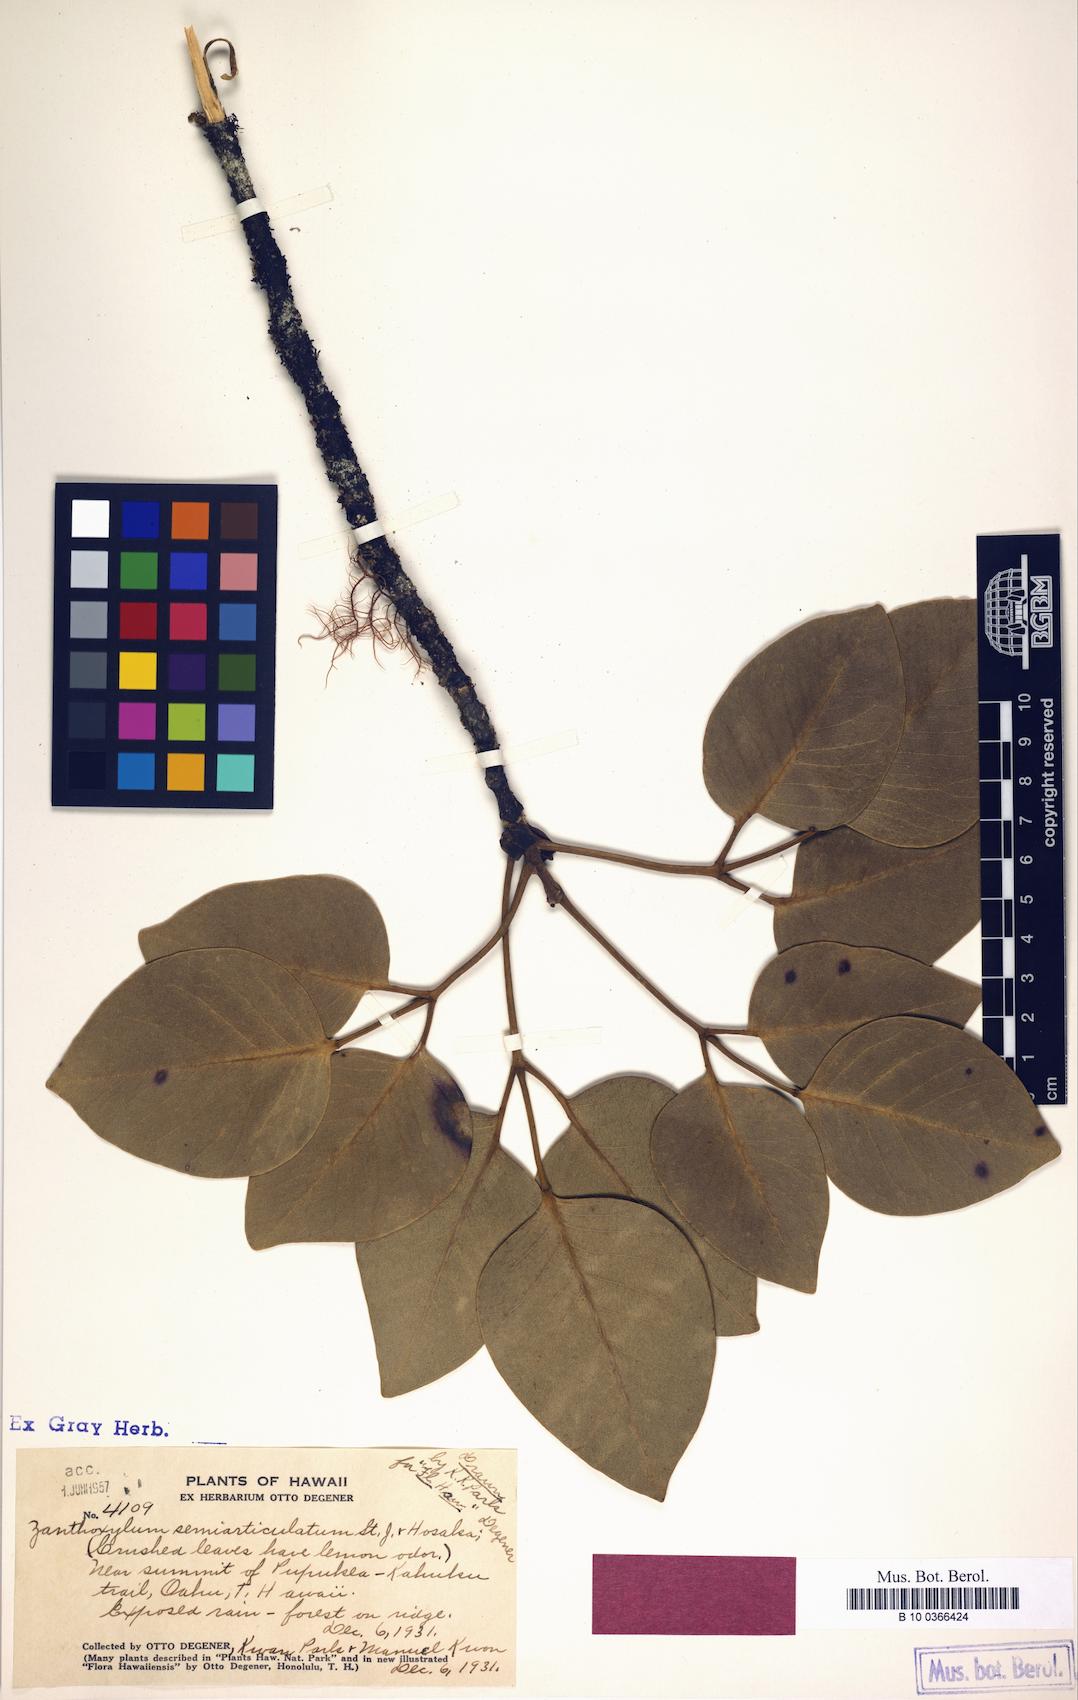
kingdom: Plantae
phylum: Tracheophyta
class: Magnoliopsida
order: Sapindales
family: Rutaceae
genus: Zanthoxylum
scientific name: Zanthoxylum kauaense
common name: Kauai prickly-ash
